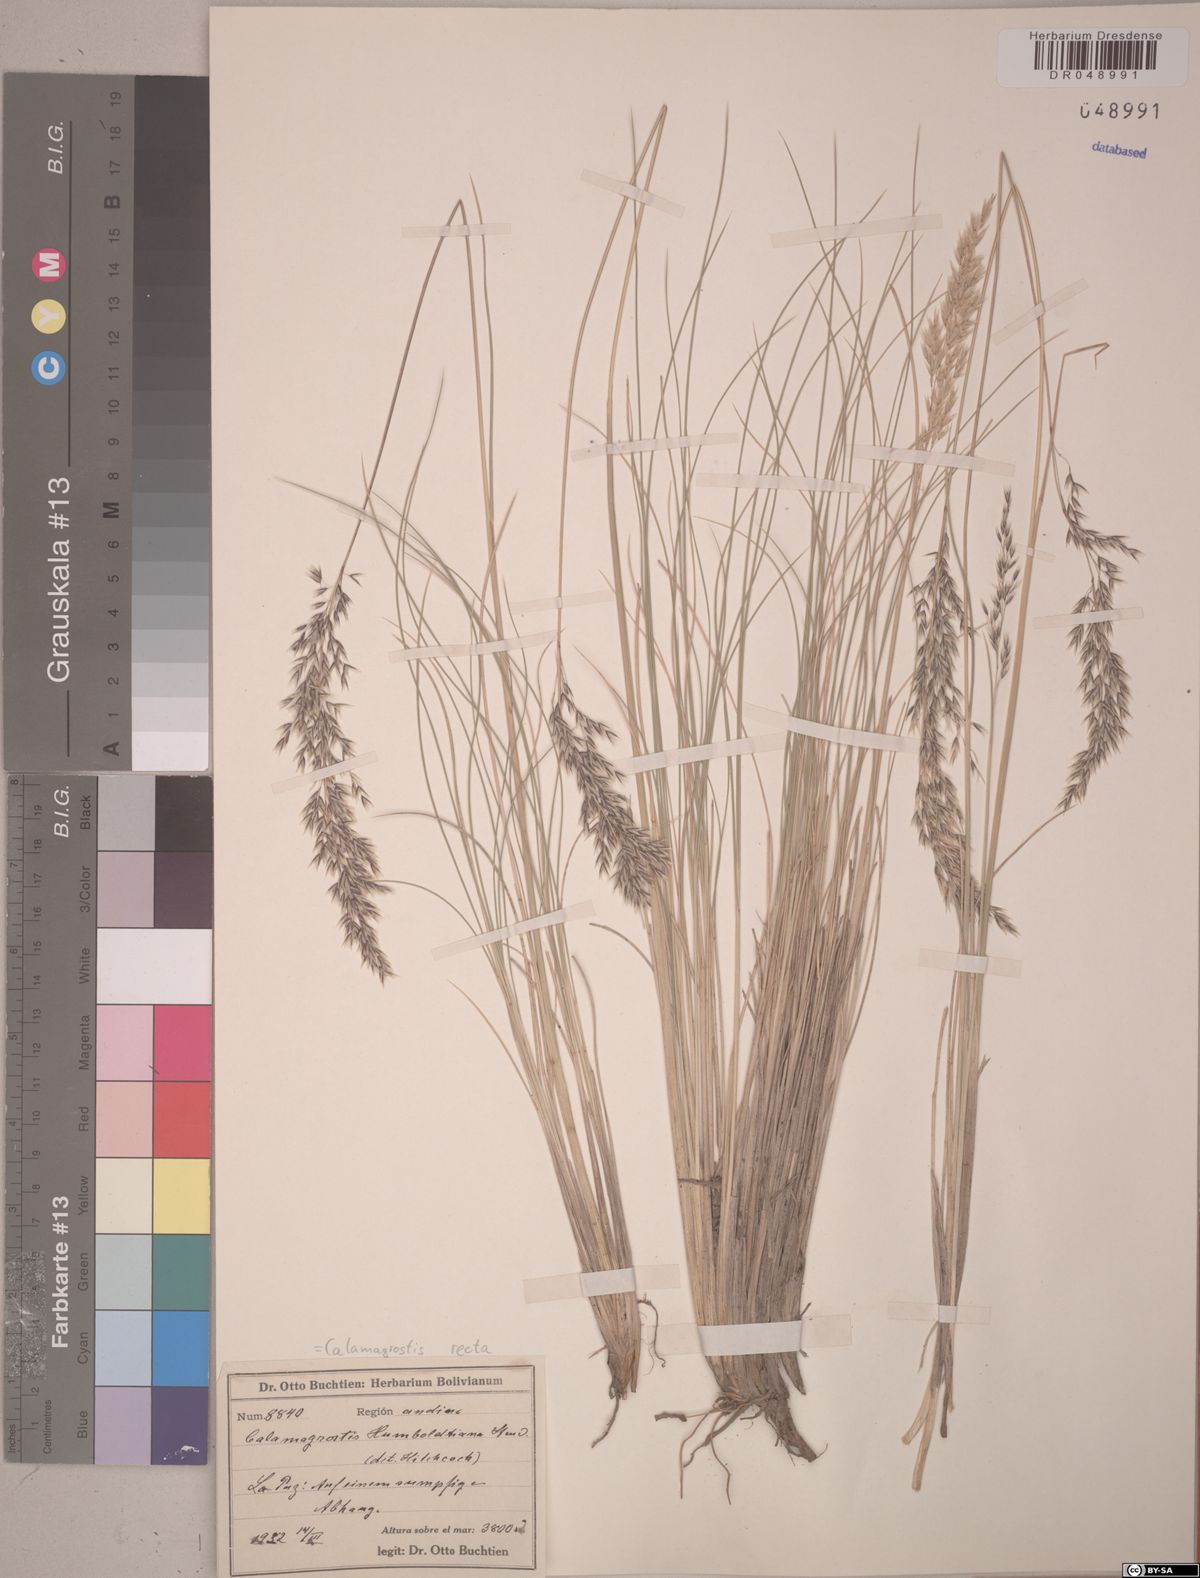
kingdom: Plantae
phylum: Tracheophyta
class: Liliopsida
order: Poales
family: Poaceae
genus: Cinnagrostis
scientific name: Cinnagrostis recta
